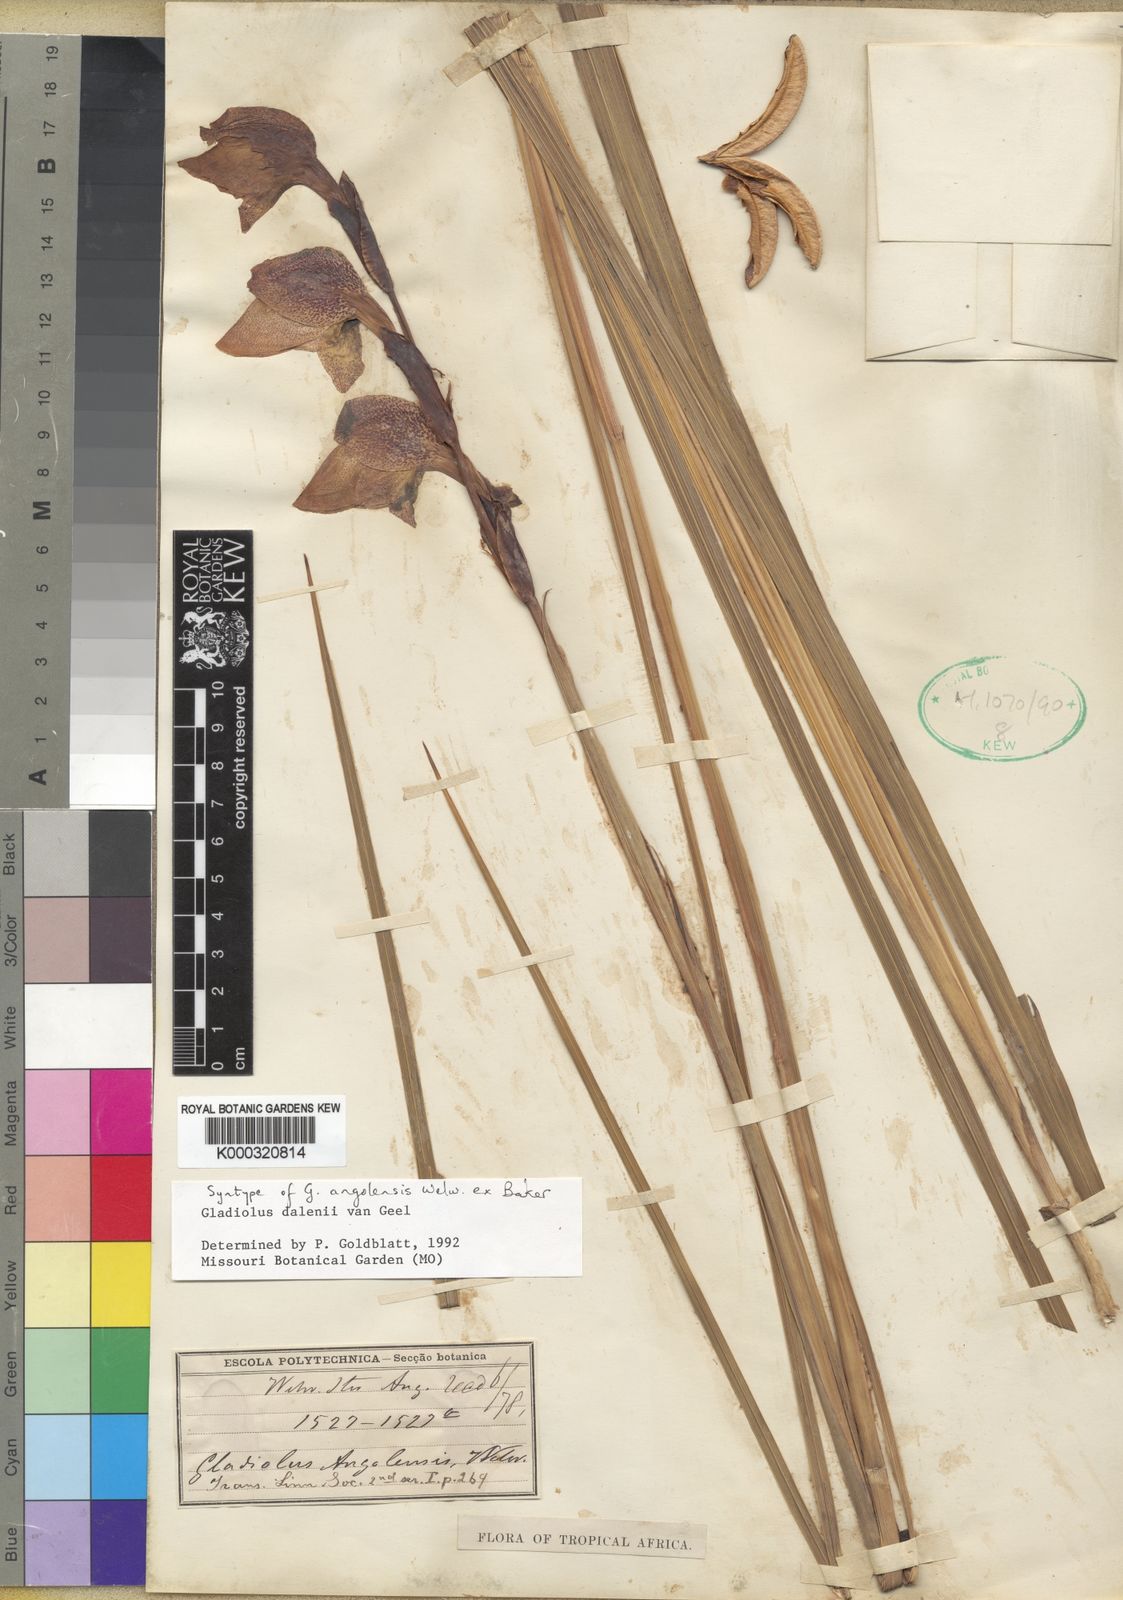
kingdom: Plantae
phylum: Tracheophyta
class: Liliopsida
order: Asparagales
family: Iridaceae
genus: Gladiolus
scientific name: Gladiolus dalenii
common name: Cornflag
